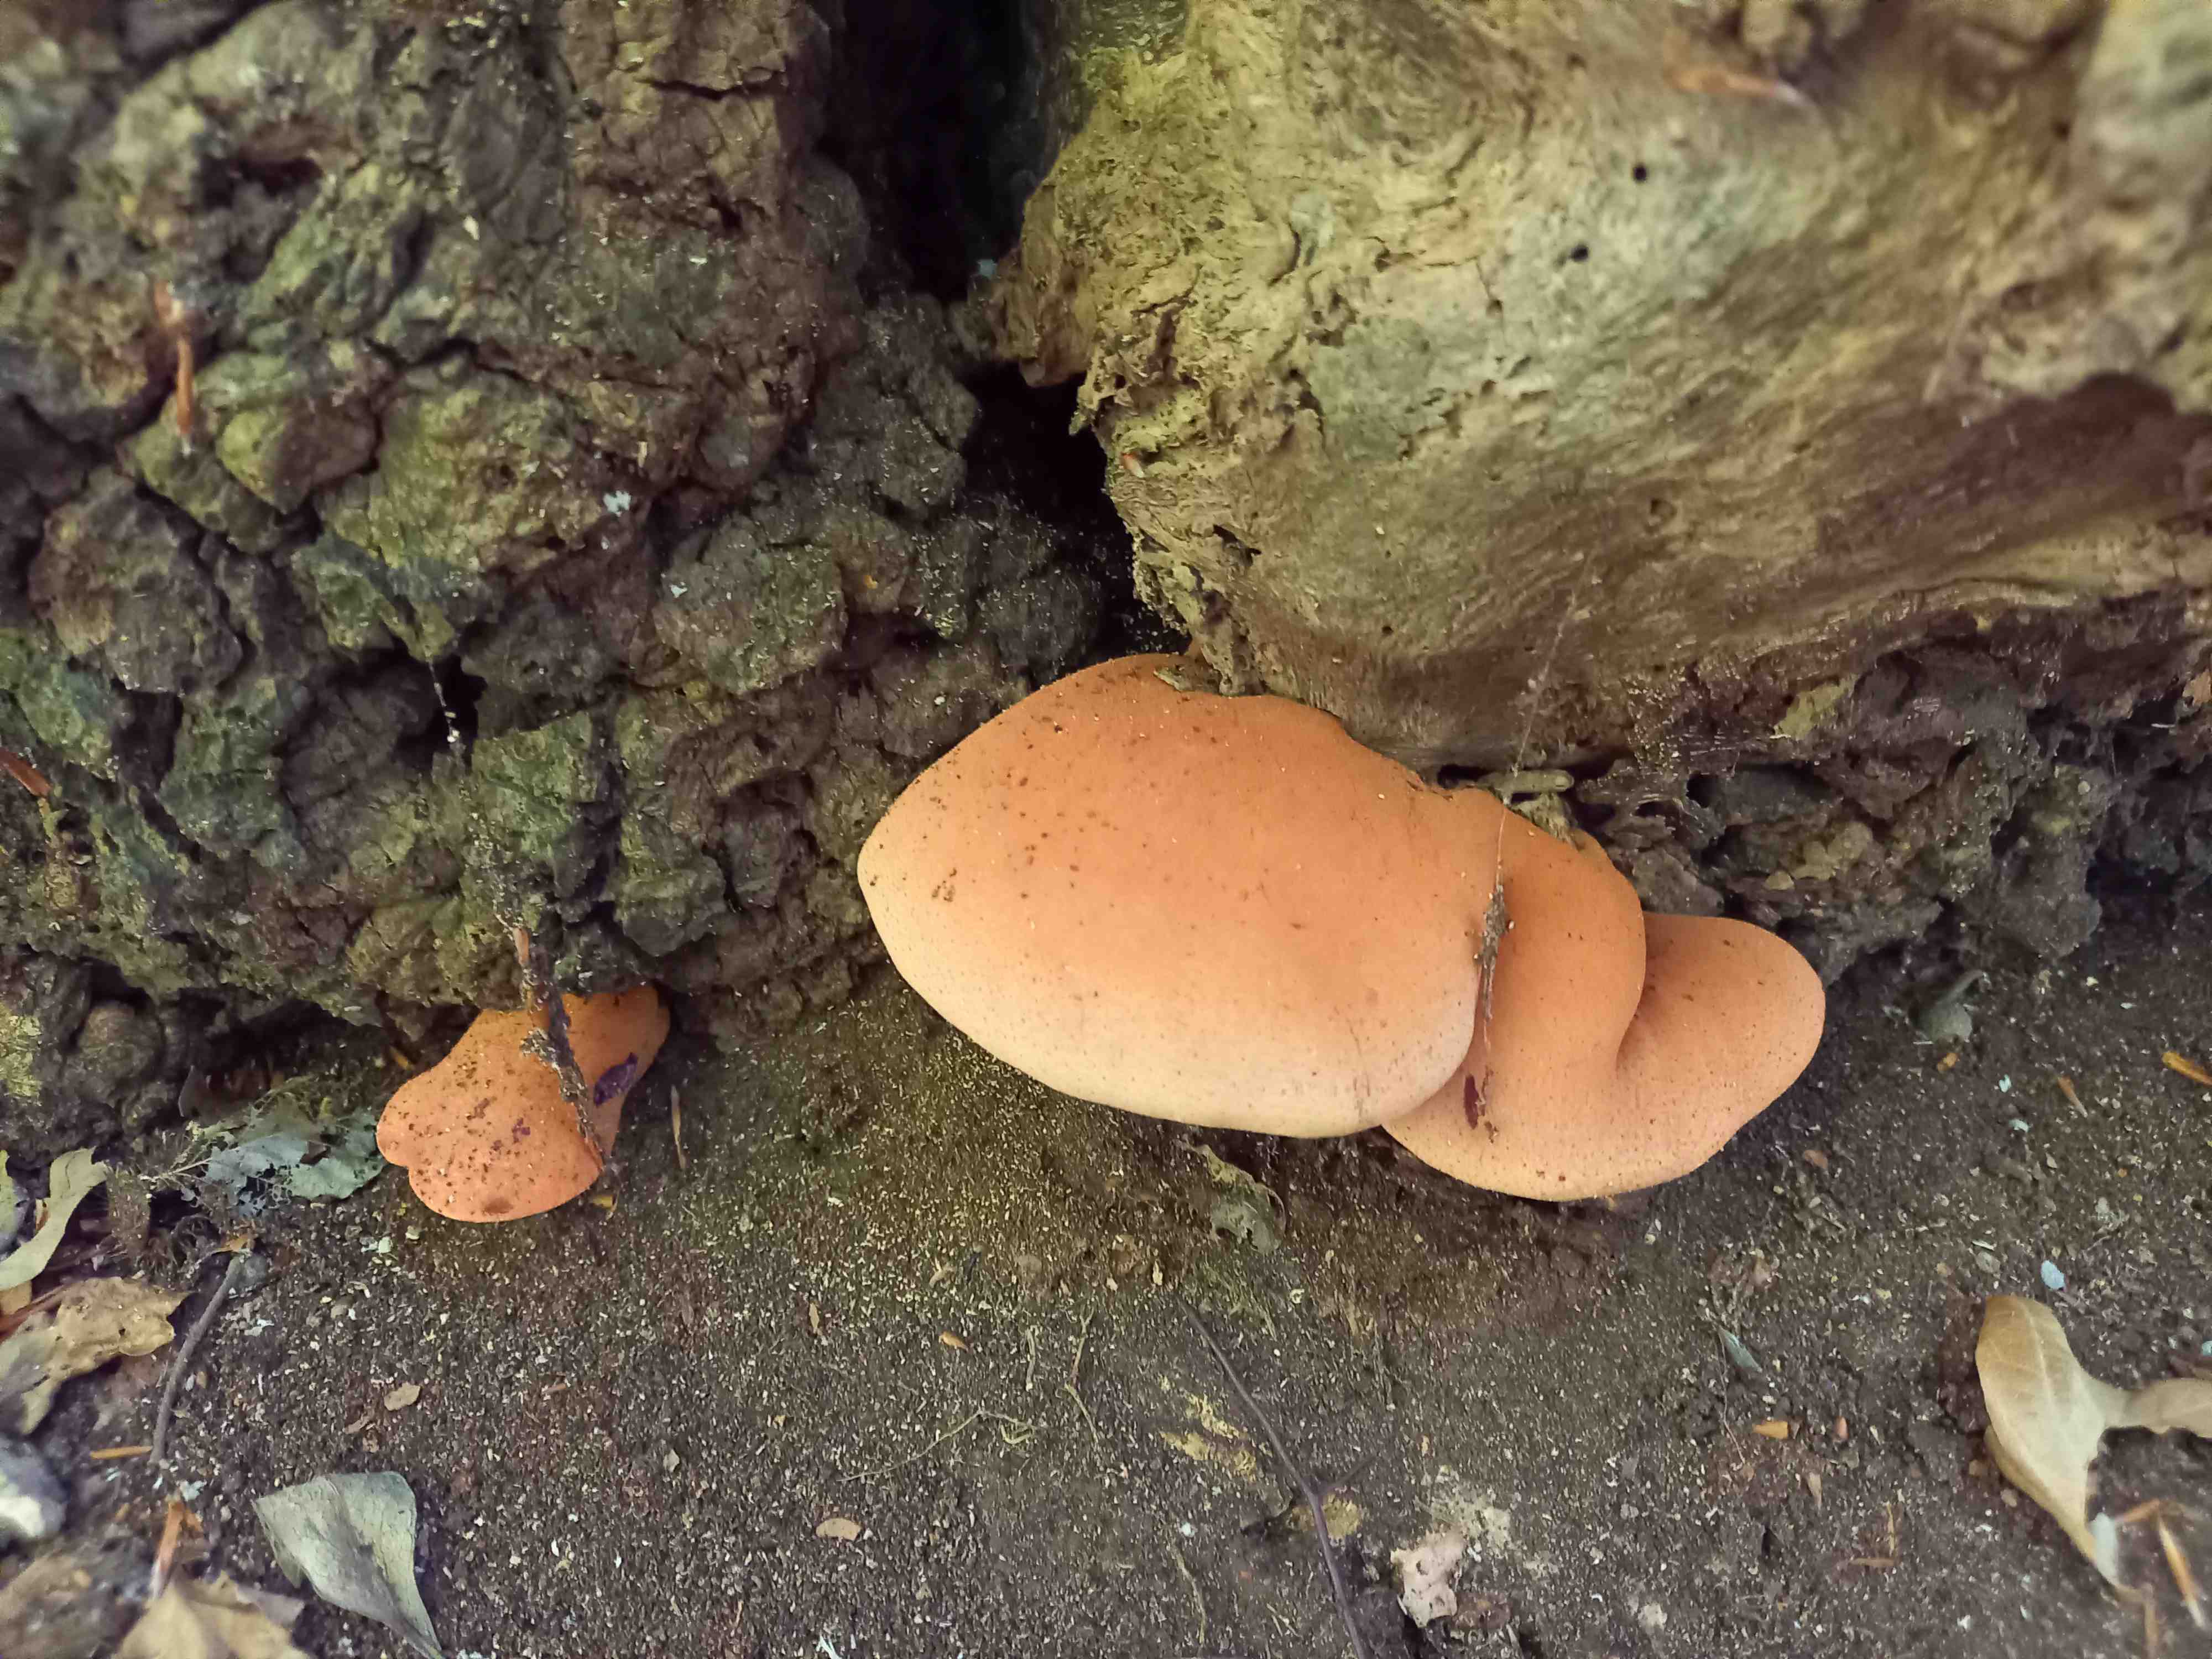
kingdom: Fungi
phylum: Basidiomycota
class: Agaricomycetes
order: Agaricales
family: Fistulinaceae
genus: Fistulina
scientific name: Fistulina hepatica
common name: oksetunge
